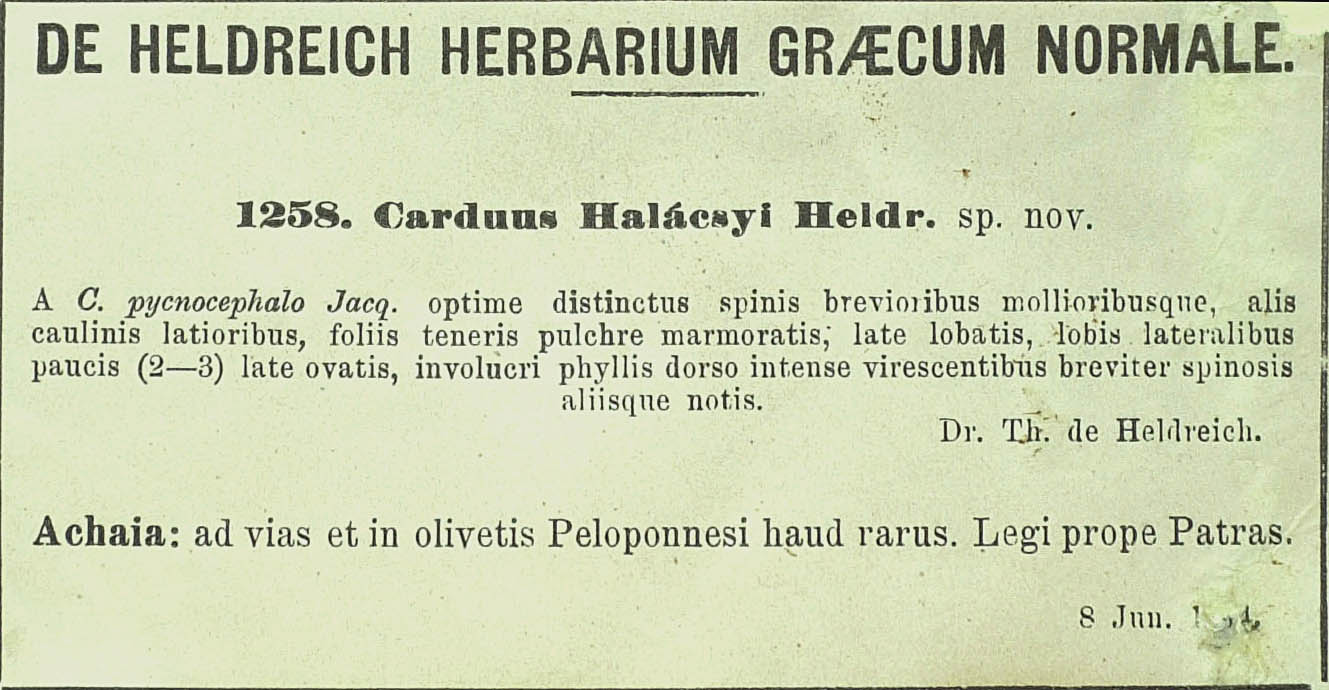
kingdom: Plantae
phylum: Tracheophyta
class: Magnoliopsida
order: Asterales
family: Asteraceae
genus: Carduus
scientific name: Carduus arabicus
